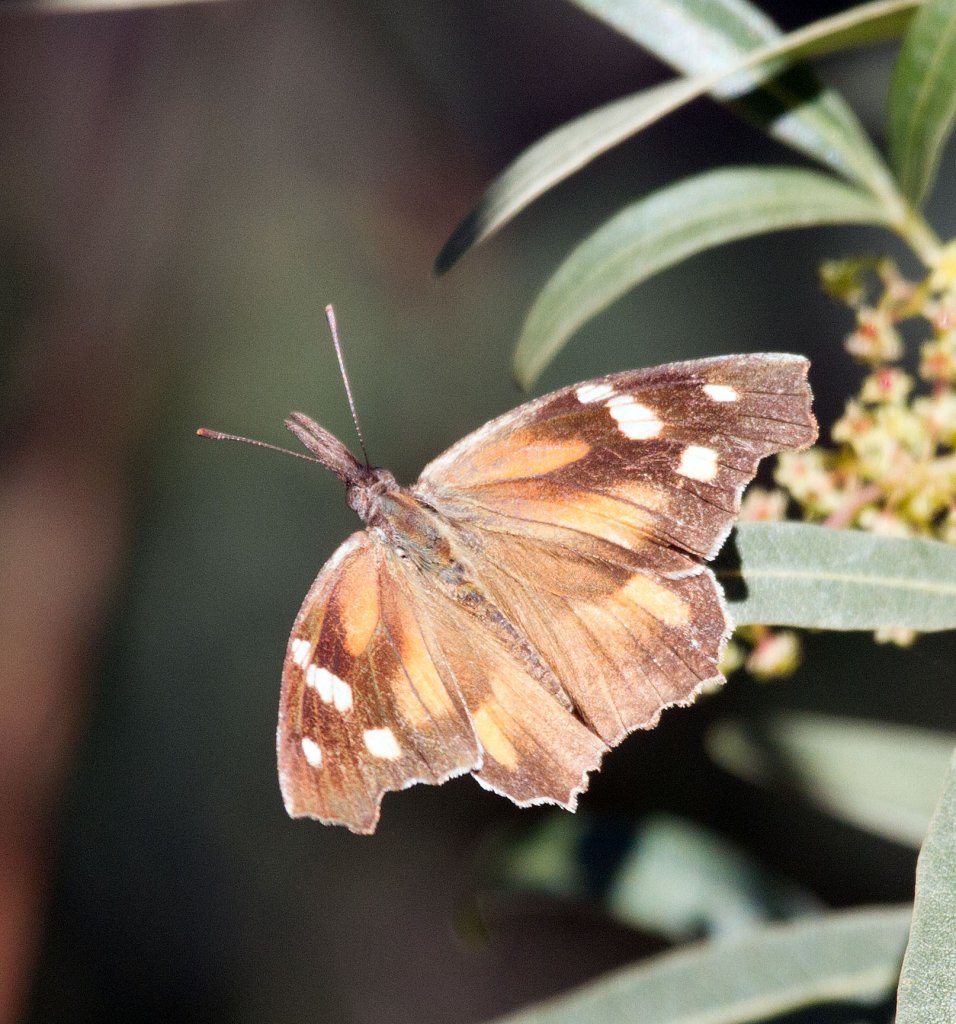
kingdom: Animalia
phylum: Arthropoda
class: Insecta
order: Lepidoptera
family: Nymphalidae
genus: Libytheana
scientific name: Libytheana carinenta
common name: American Snout
